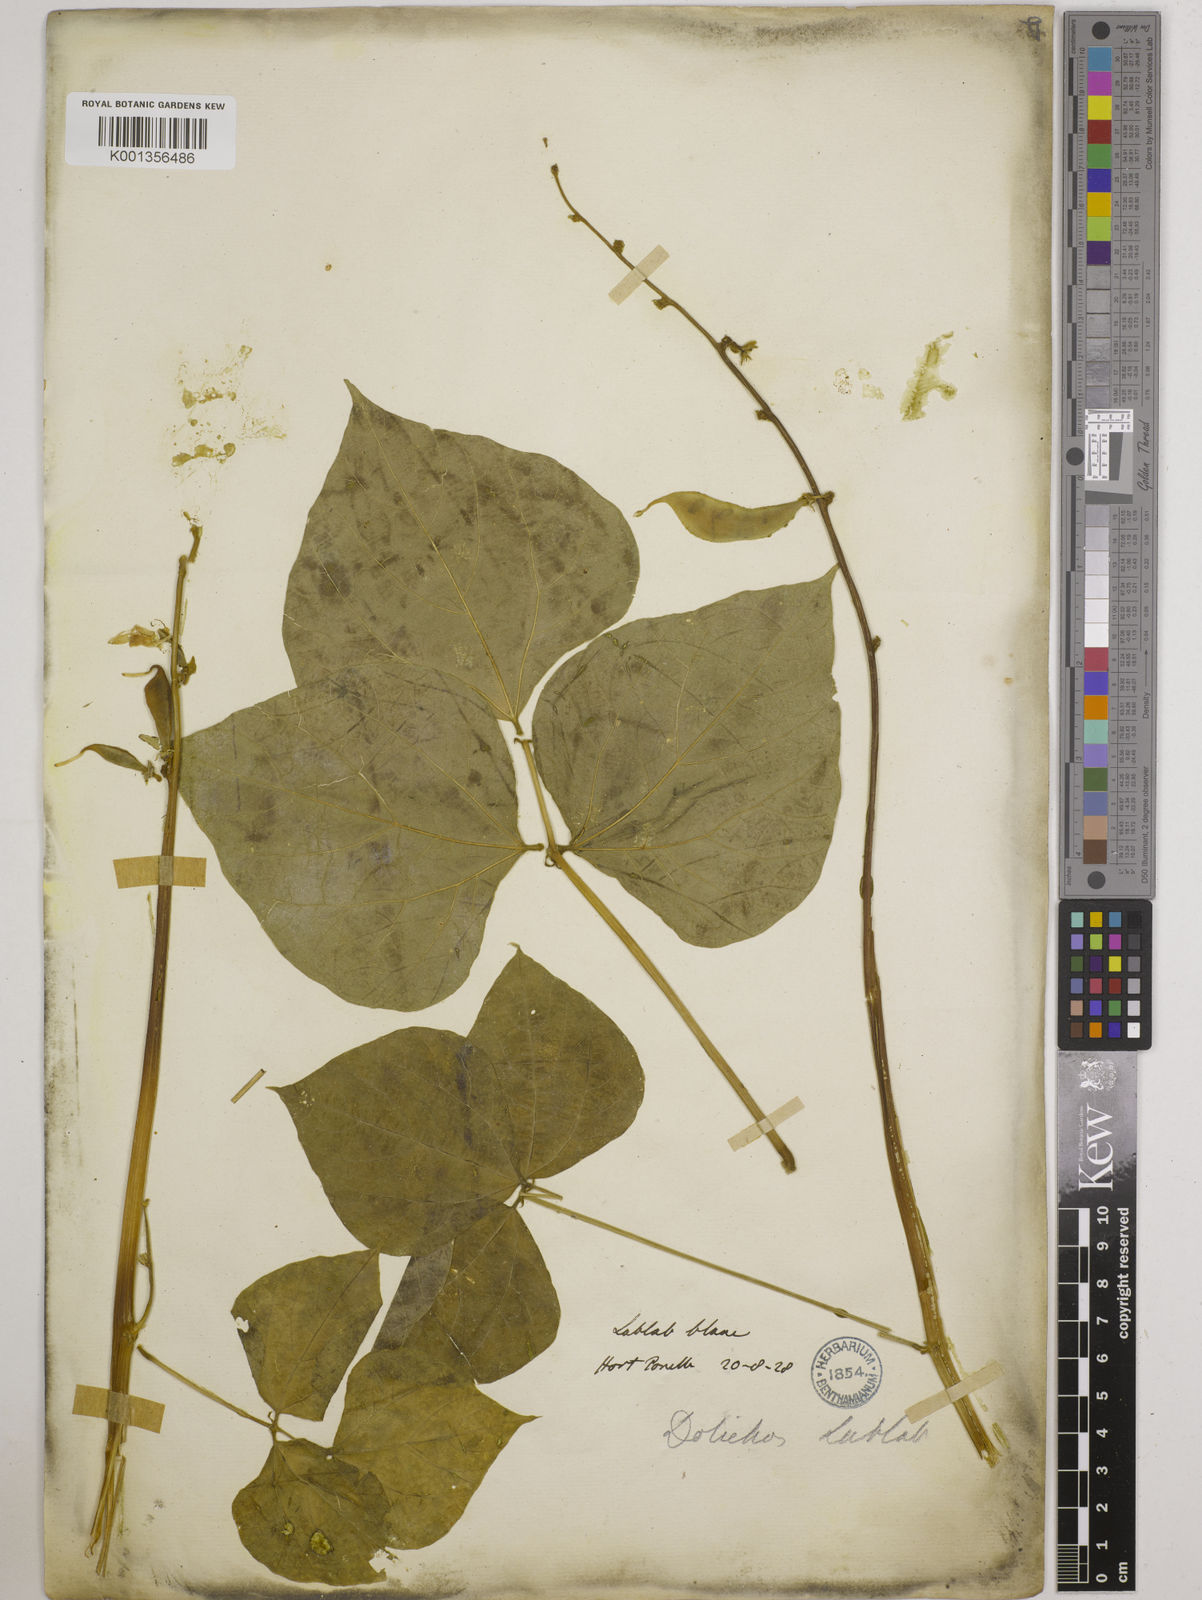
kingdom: Plantae
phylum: Tracheophyta
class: Magnoliopsida
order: Fabales
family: Fabaceae
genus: Lablab
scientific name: Lablab purpureus
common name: Lablab-bean
